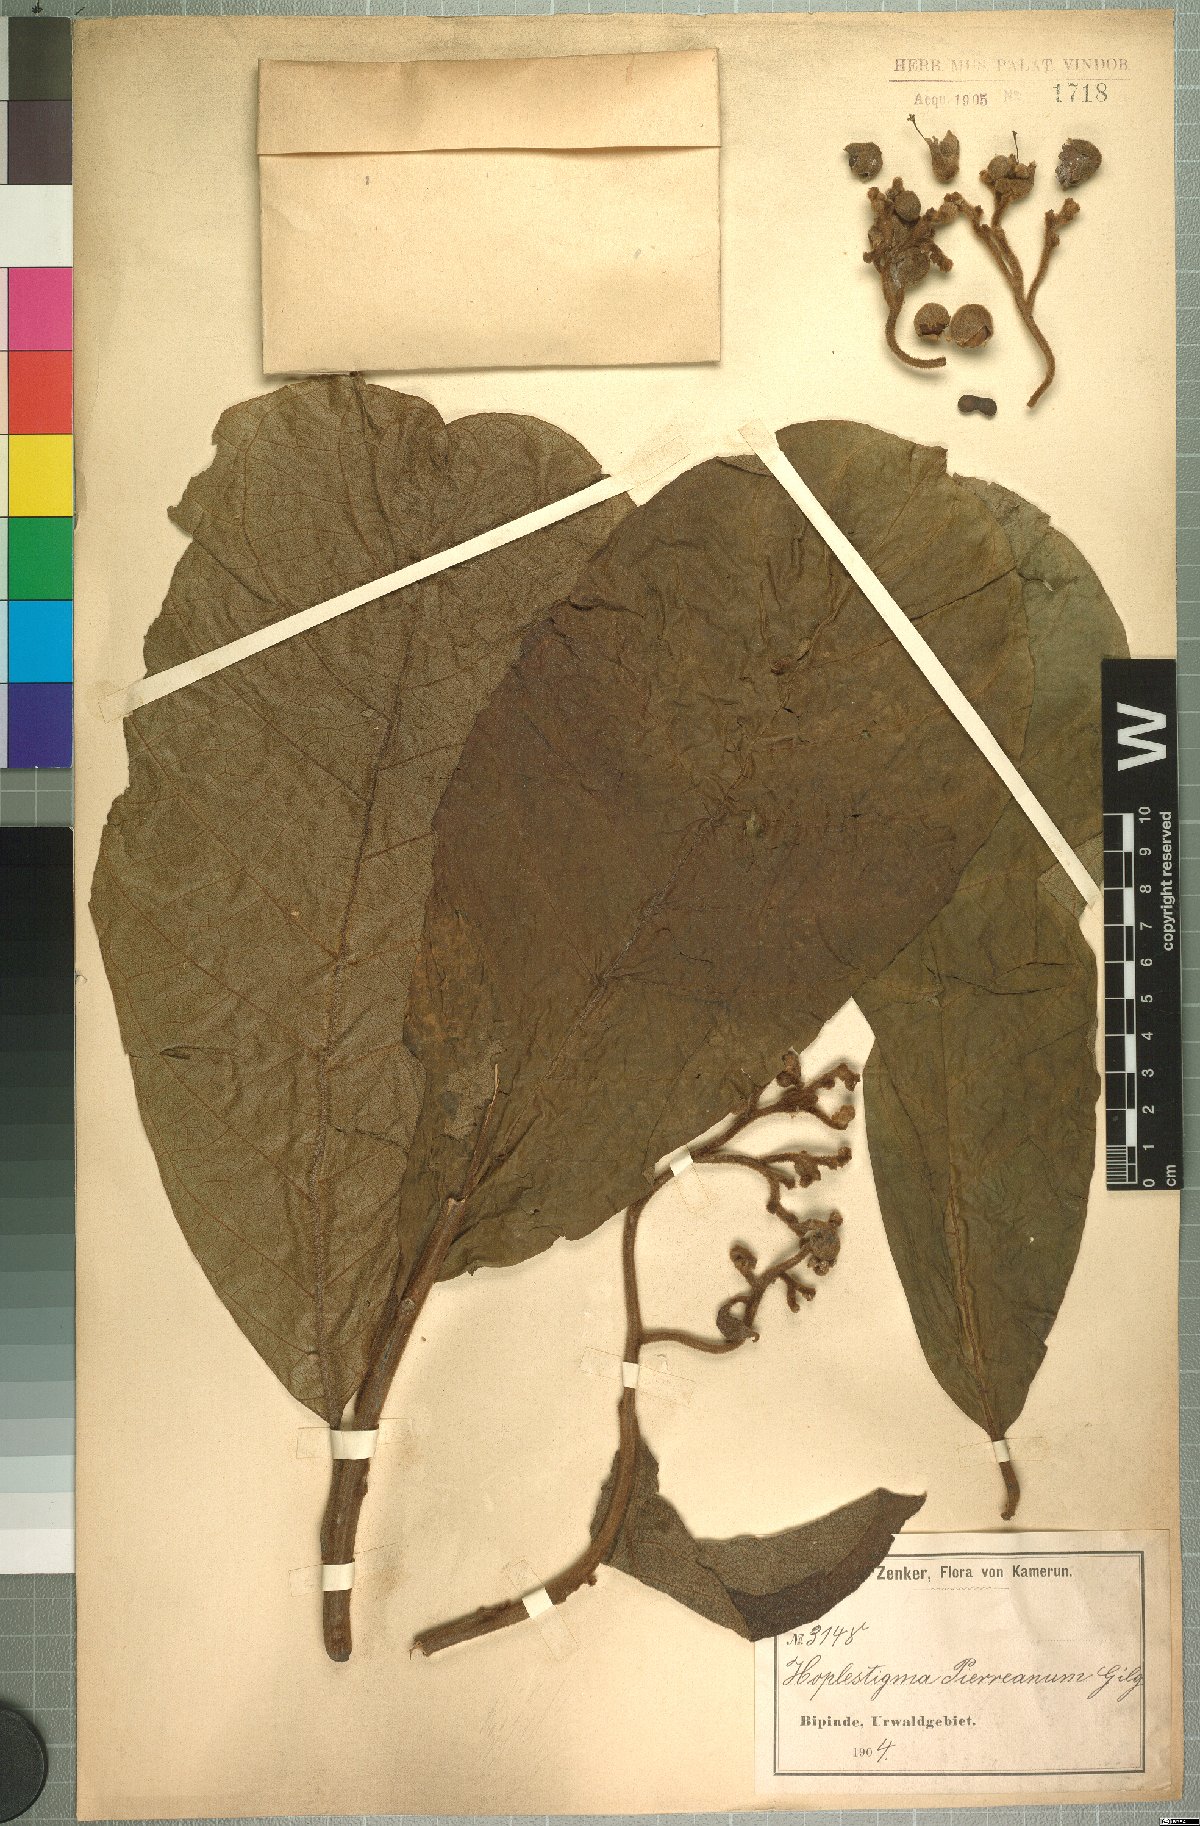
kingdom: Plantae
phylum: Tracheophyta
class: Magnoliopsida
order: Boraginales
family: Hoplestigmataceae
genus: Hoplestigma
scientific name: Hoplestigma pierreanum
